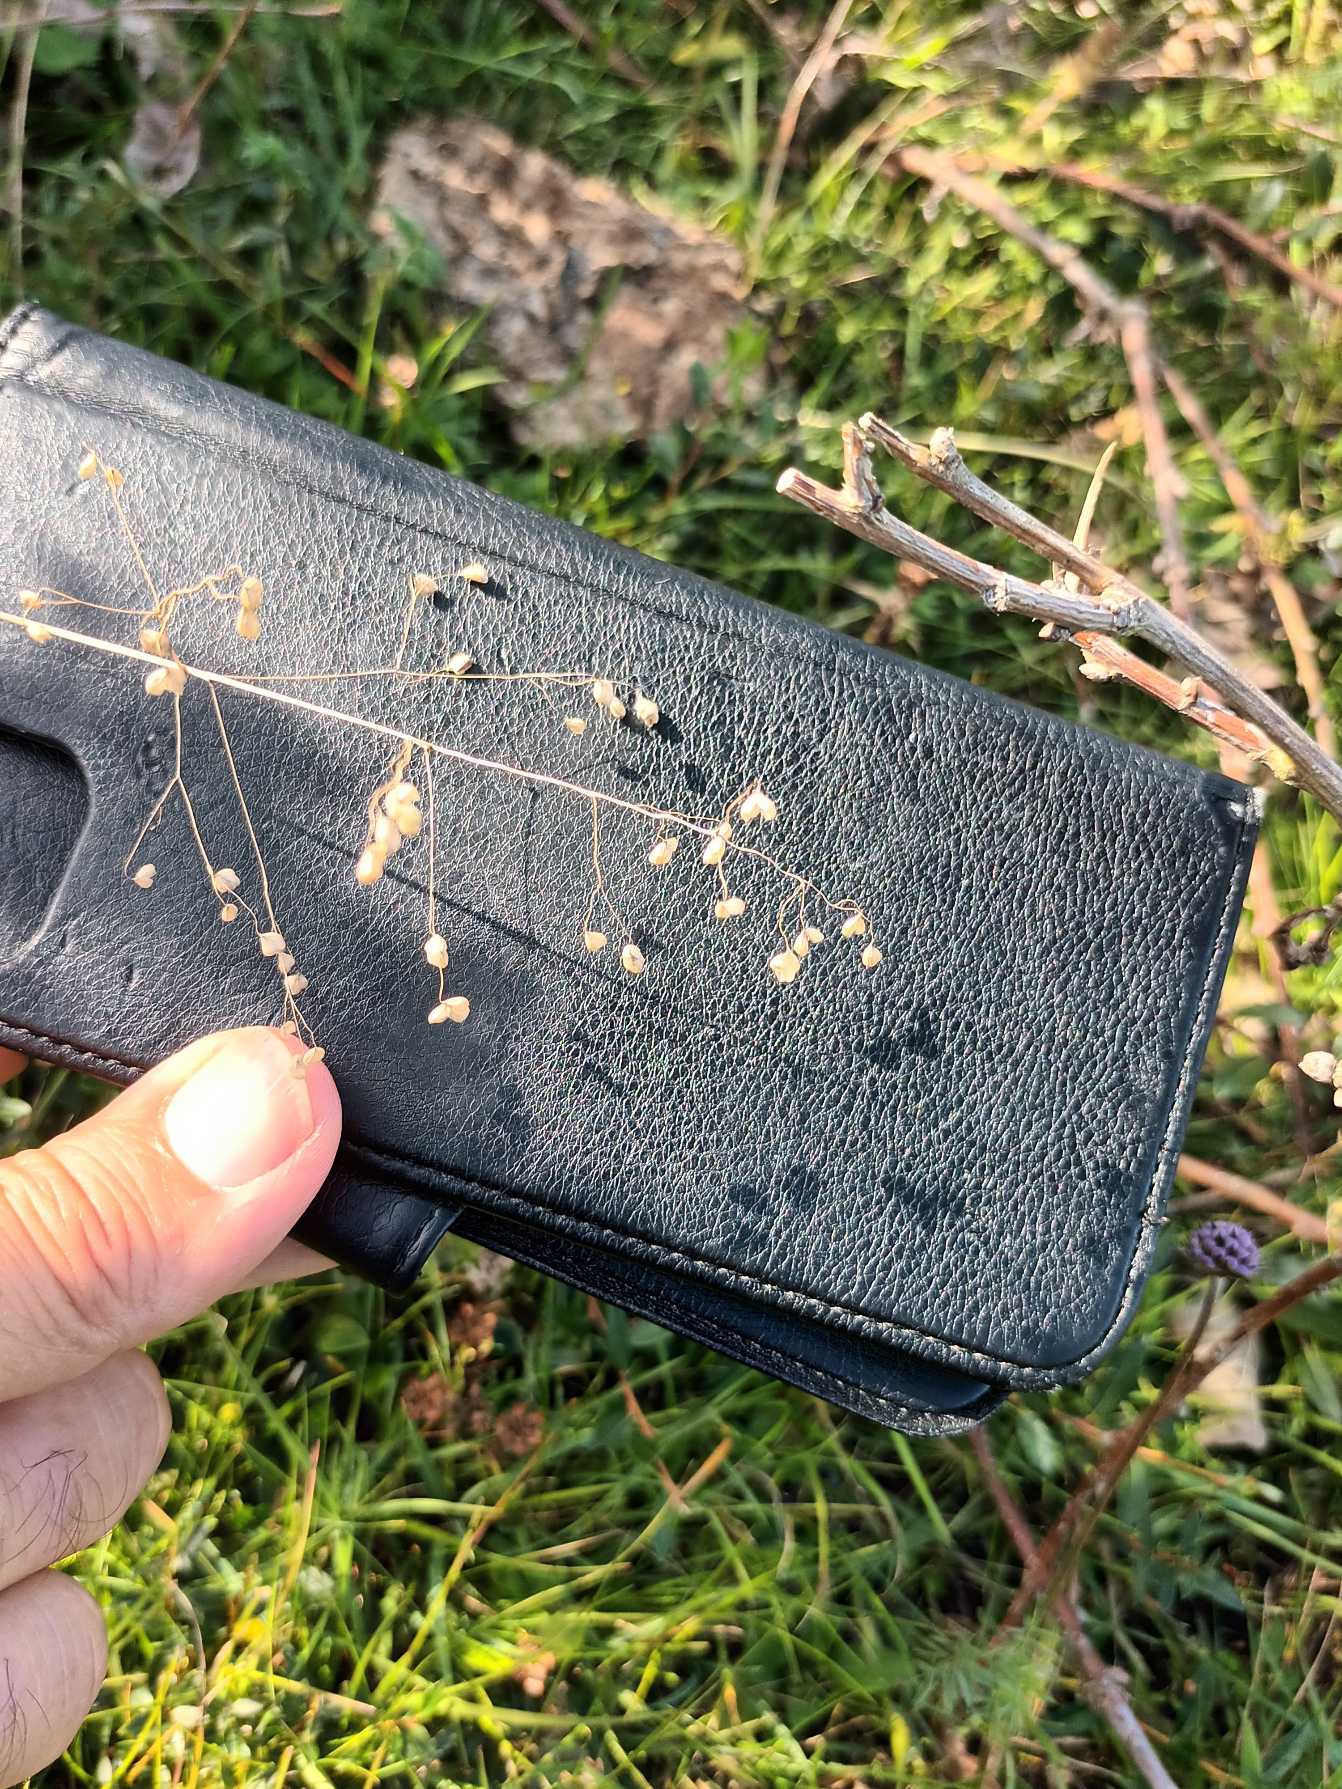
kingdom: Plantae
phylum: Tracheophyta
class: Liliopsida
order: Poales
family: Poaceae
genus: Briza
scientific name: Briza media
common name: Hjertegræs
